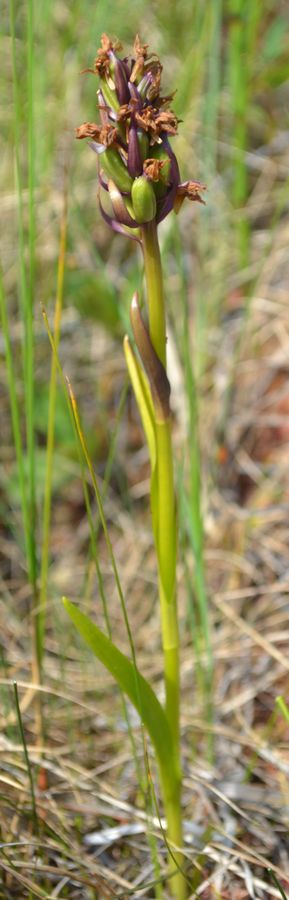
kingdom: Plantae
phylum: Tracheophyta
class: Liliopsida
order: Asparagales
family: Orchidaceae
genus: Dactylorhiza
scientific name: Dactylorhiza incarnata
